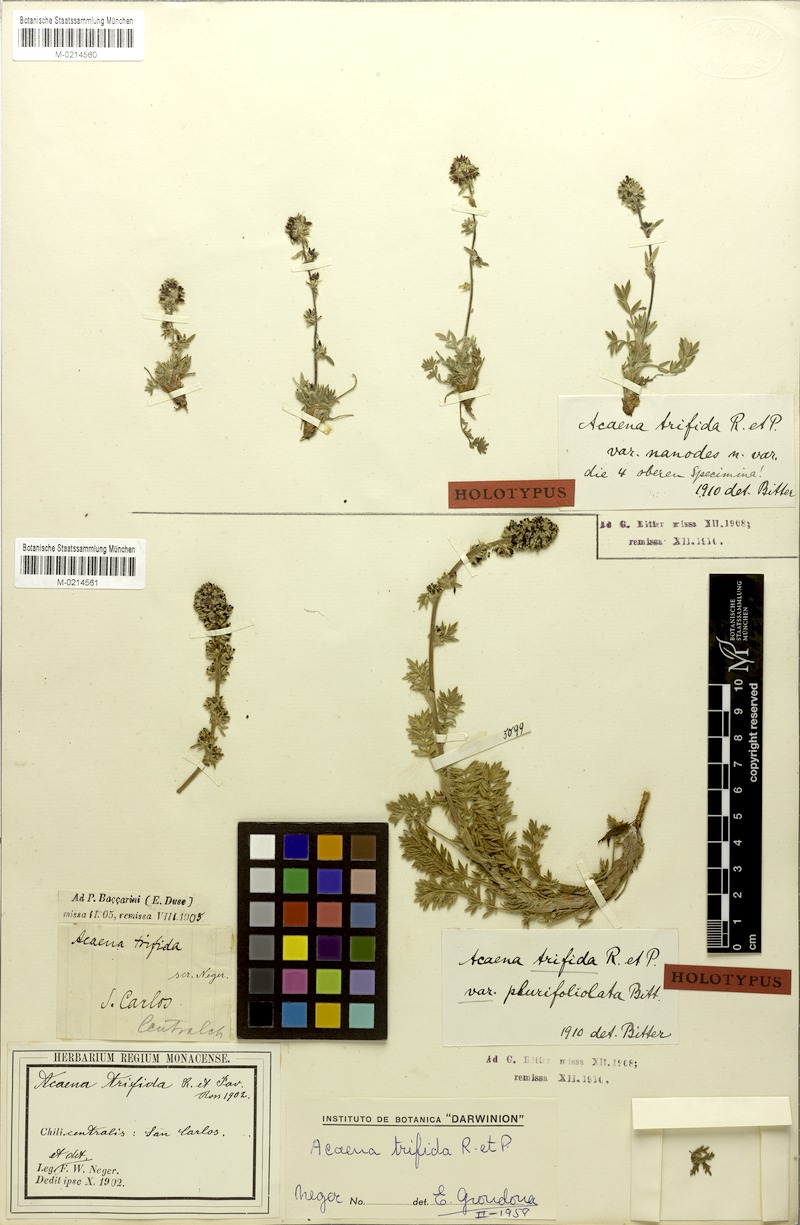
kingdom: Plantae
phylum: Tracheophyta
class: Magnoliopsida
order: Rosales
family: Rosaceae
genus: Acaena
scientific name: Acaena trifida
